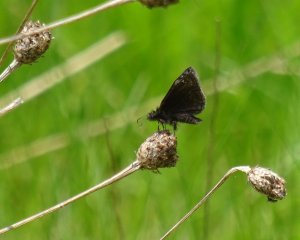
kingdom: Animalia
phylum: Arthropoda
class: Insecta
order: Lepidoptera
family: Hesperiidae
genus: Erynnis
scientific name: Erynnis
